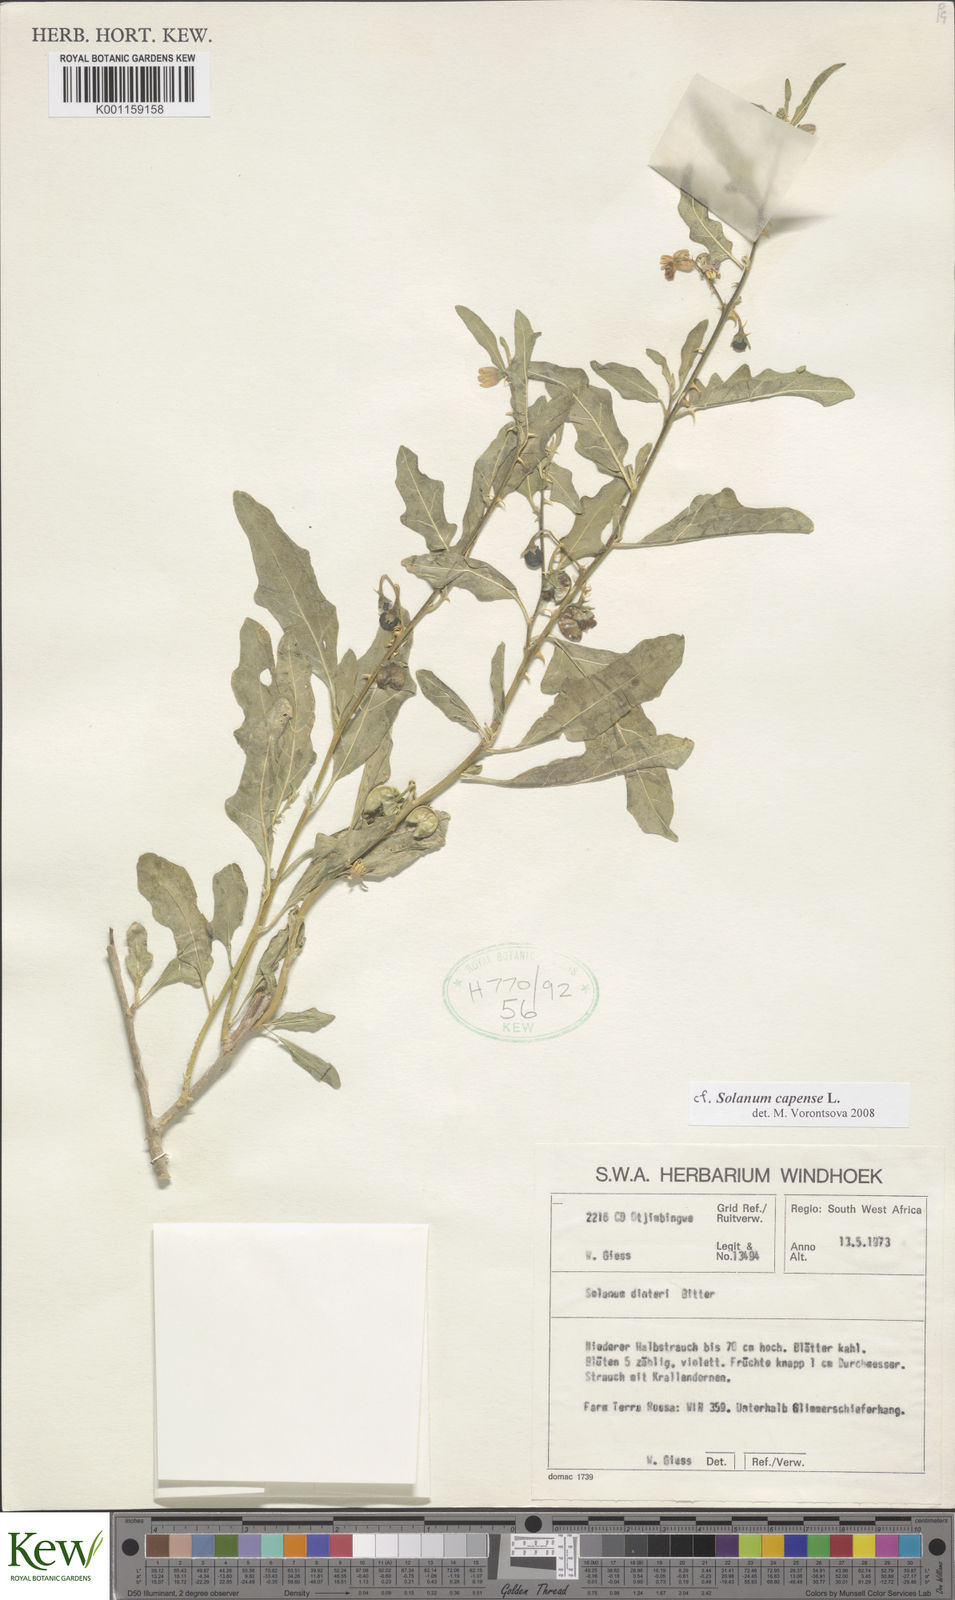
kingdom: Plantae
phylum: Tracheophyta
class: Magnoliopsida
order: Solanales
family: Solanaceae
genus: Solanum
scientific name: Solanum capense
